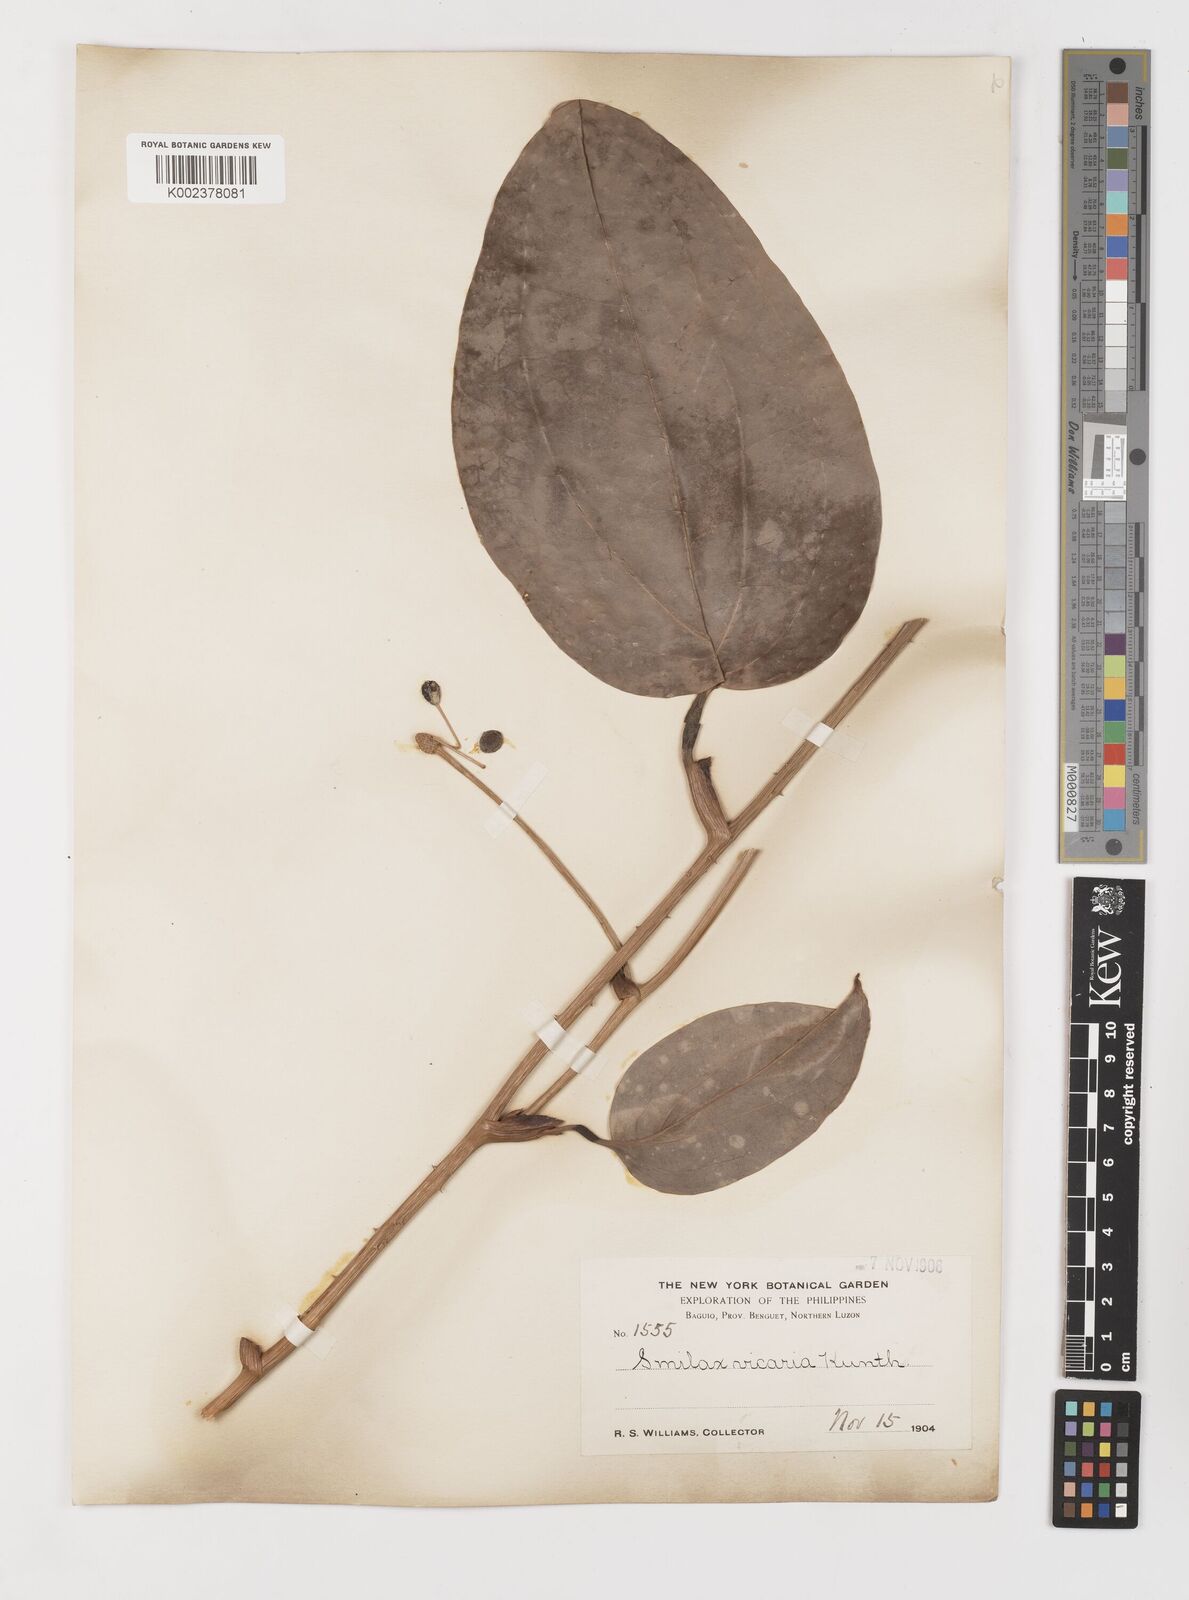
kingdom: Plantae
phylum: Tracheophyta
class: Liliopsida
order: Liliales
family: Smilacaceae
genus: Smilax
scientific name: Smilax leucophylla
